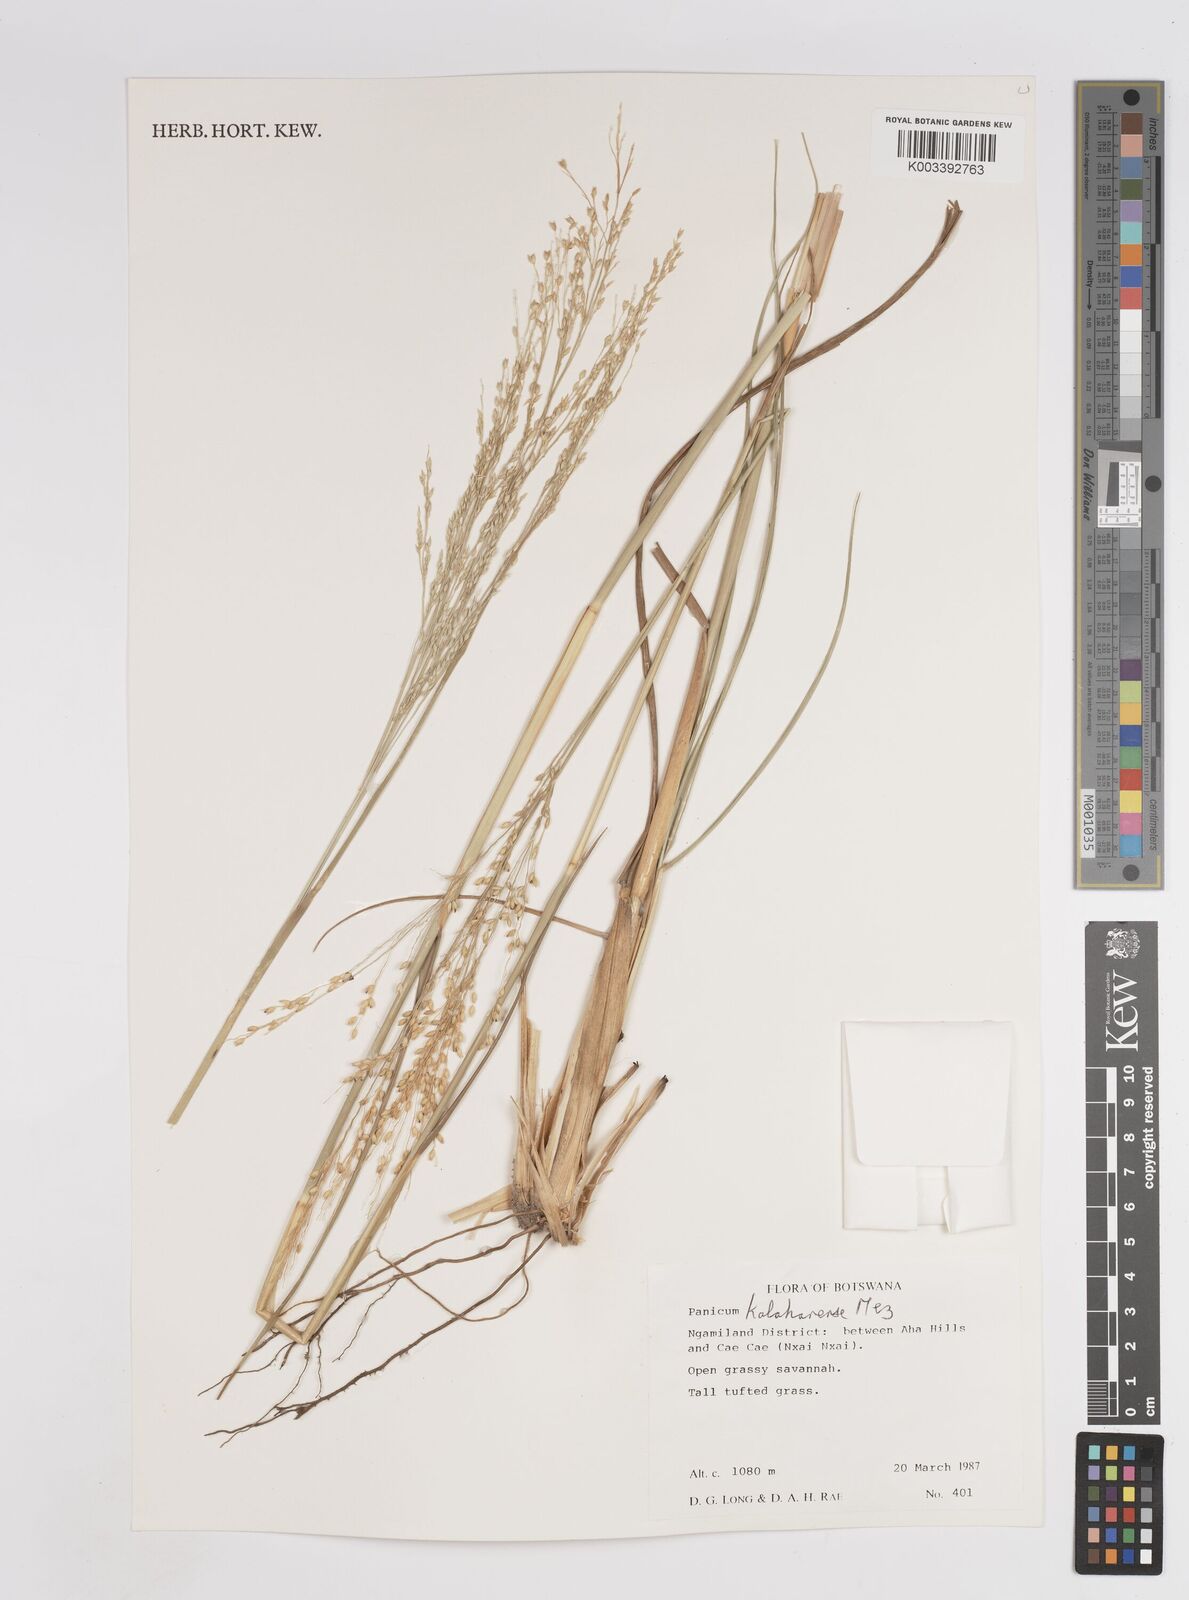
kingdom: Plantae
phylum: Tracheophyta
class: Liliopsida
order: Poales
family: Poaceae
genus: Panicum
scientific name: Panicum kalaharense
